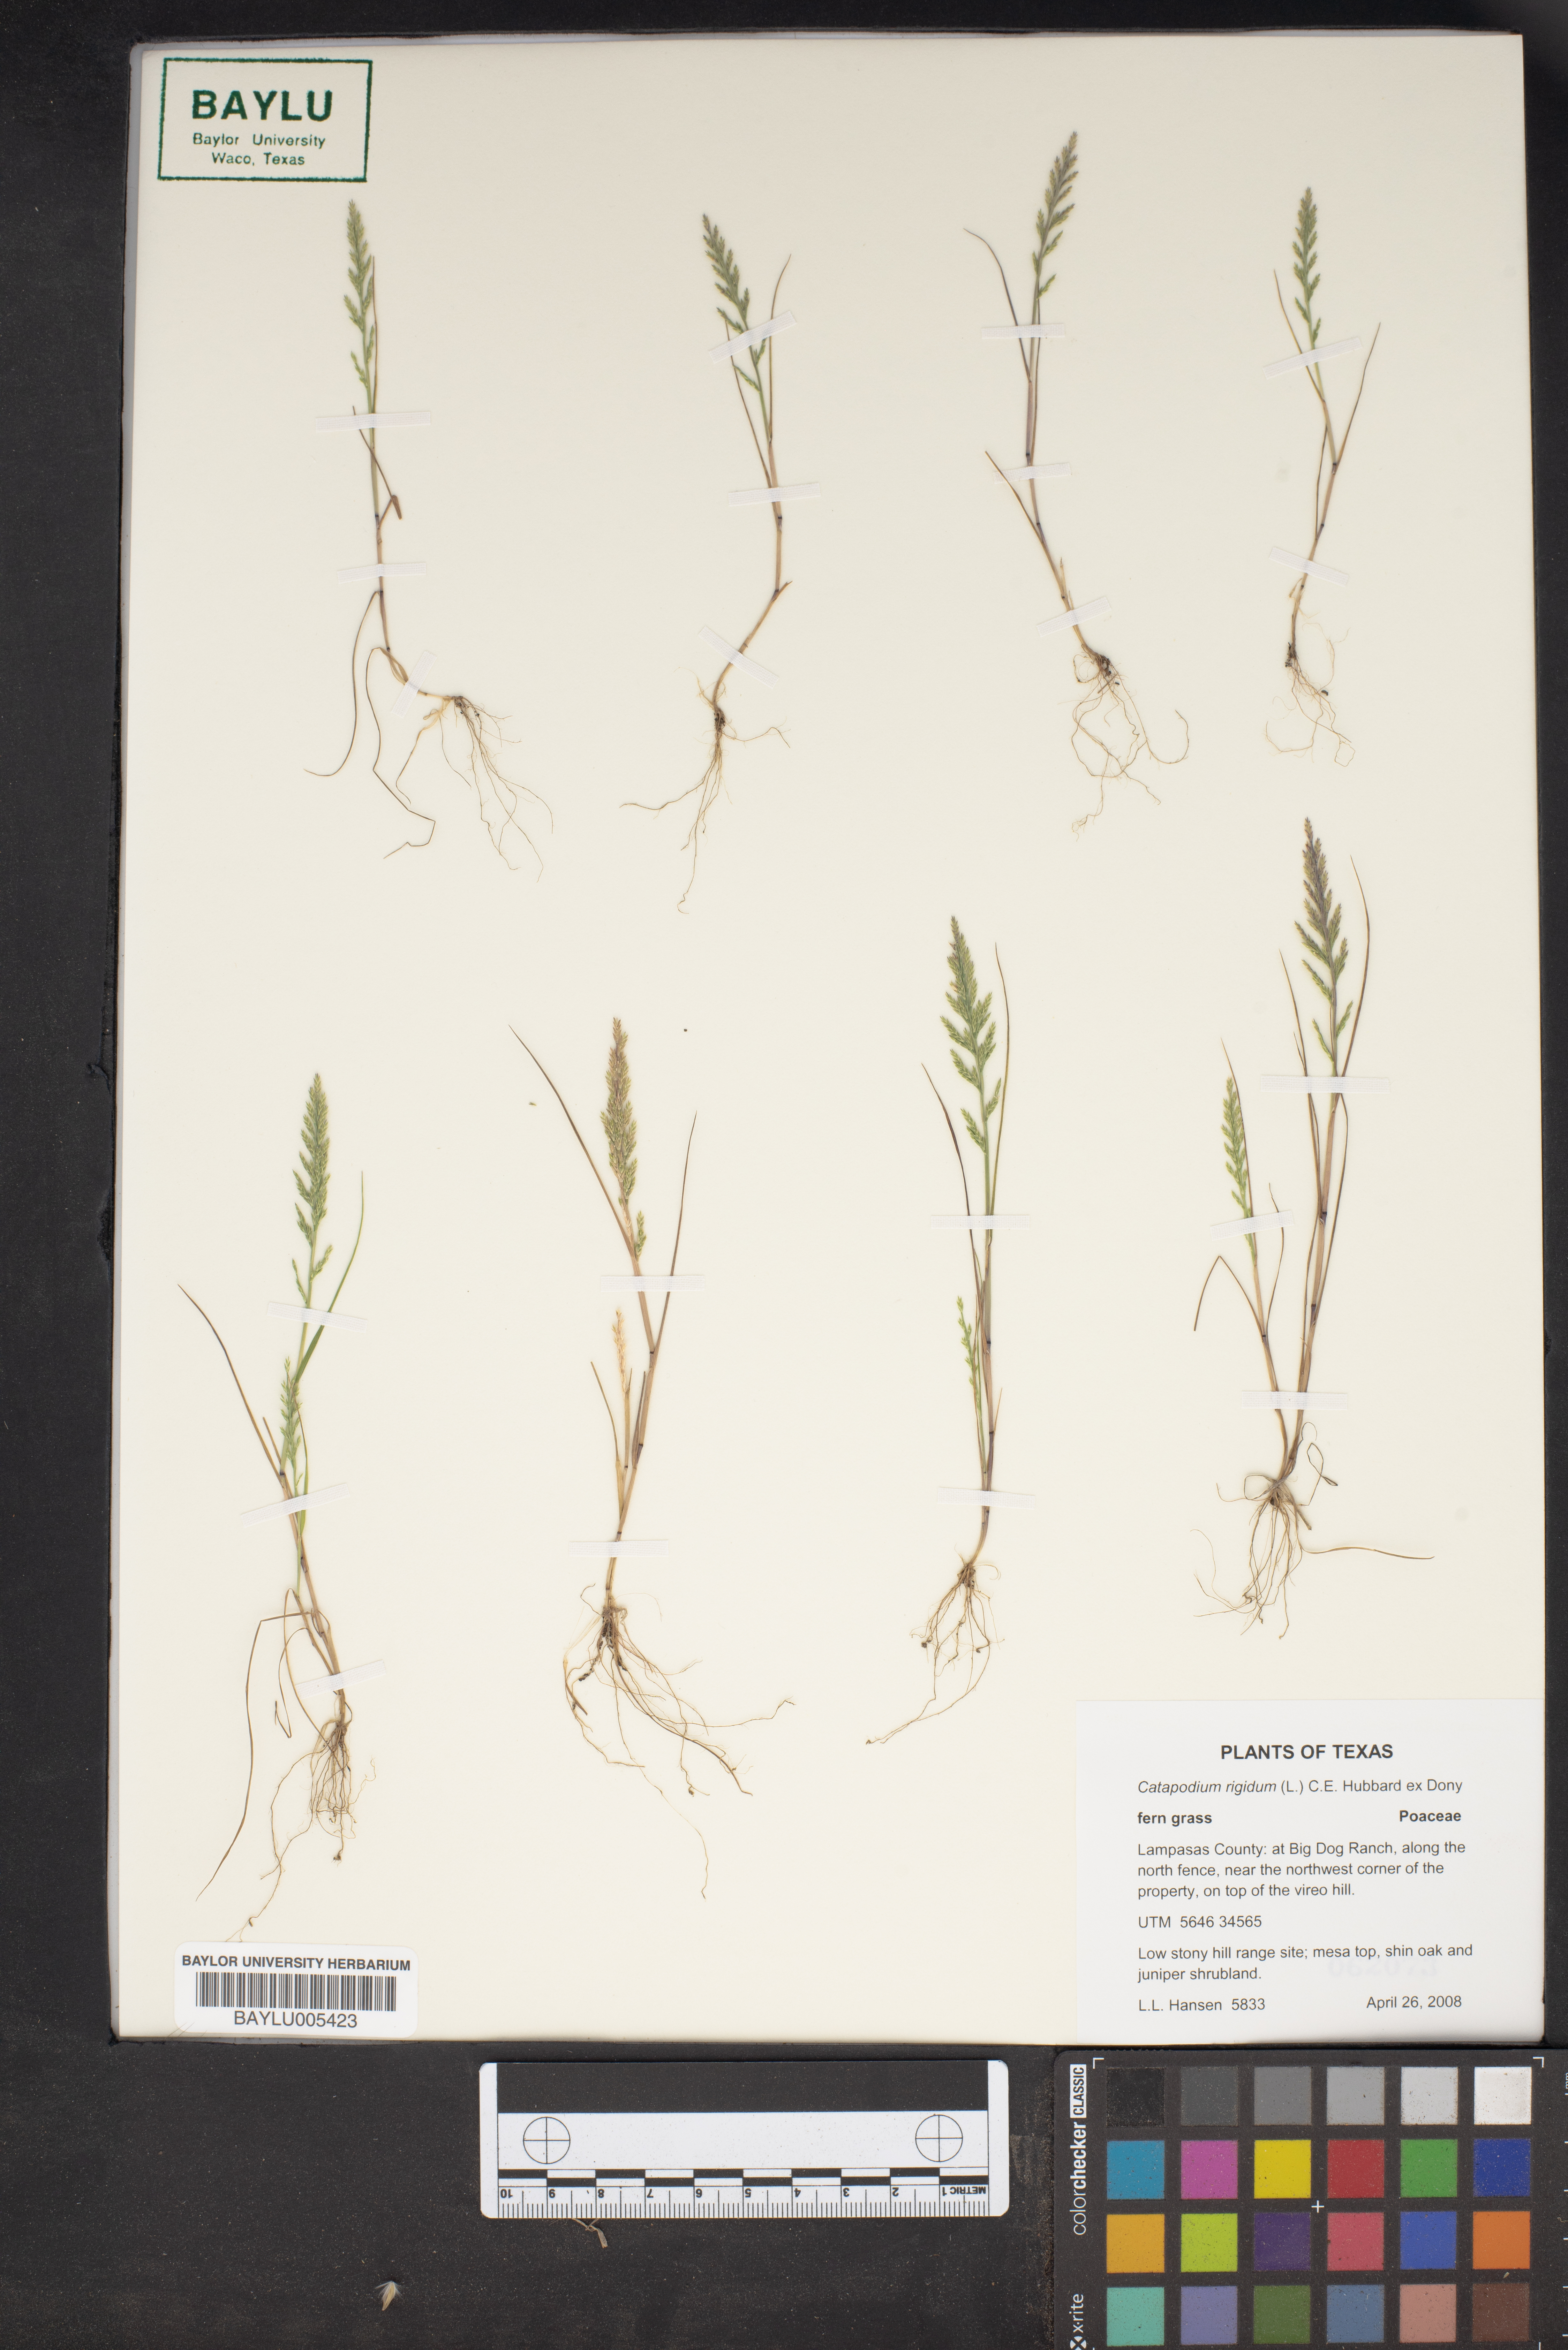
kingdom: Plantae
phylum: Tracheophyta
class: Liliopsida
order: Poales
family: Poaceae
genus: Catapodium
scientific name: Catapodium rigidum
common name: Fern-grass
